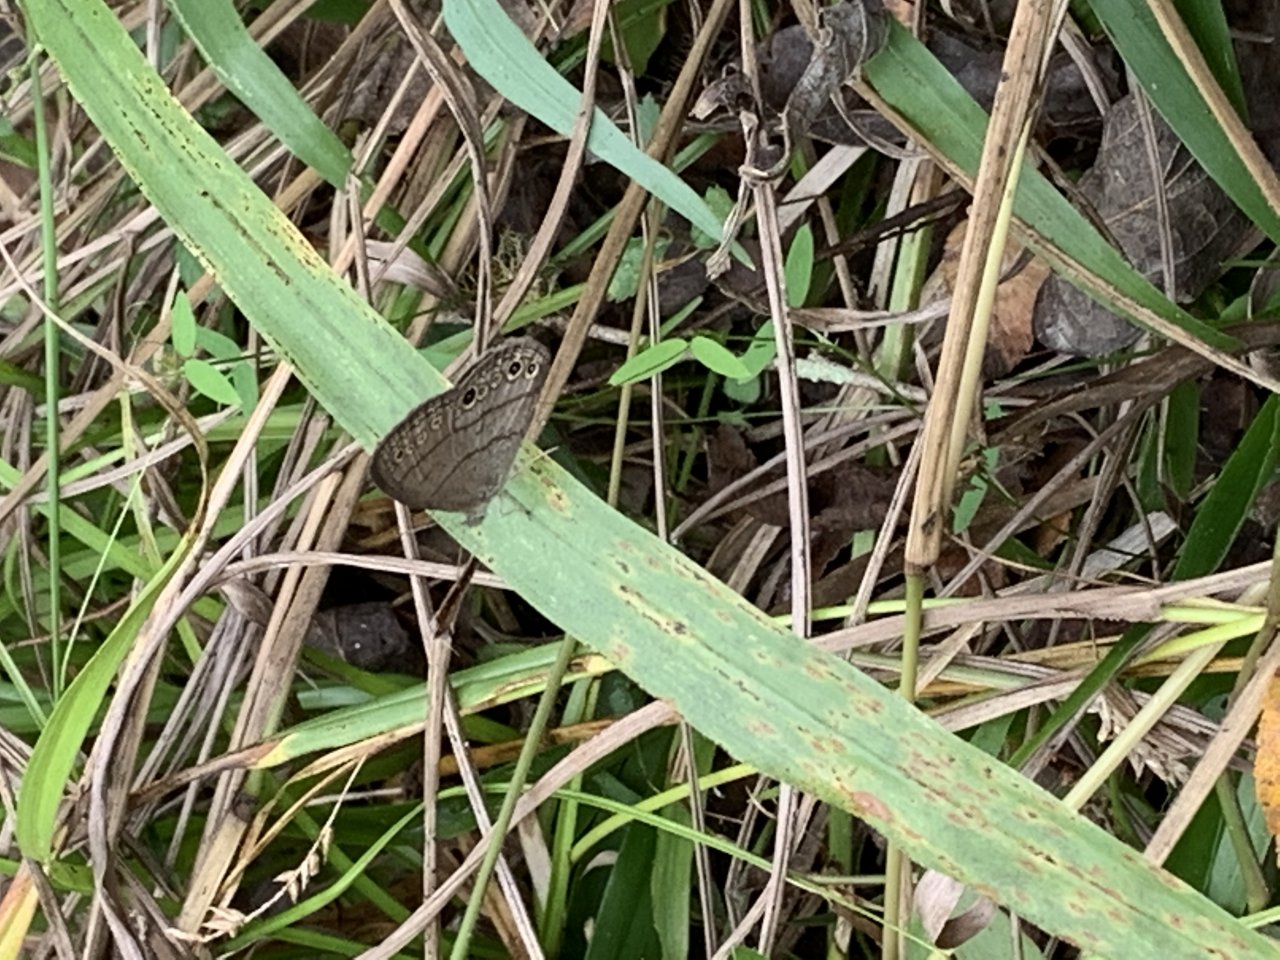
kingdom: Animalia
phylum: Arthropoda
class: Insecta
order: Lepidoptera
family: Nymphalidae
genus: Hermeuptychia
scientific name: Hermeuptychia intricata
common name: Intricate Satyr
